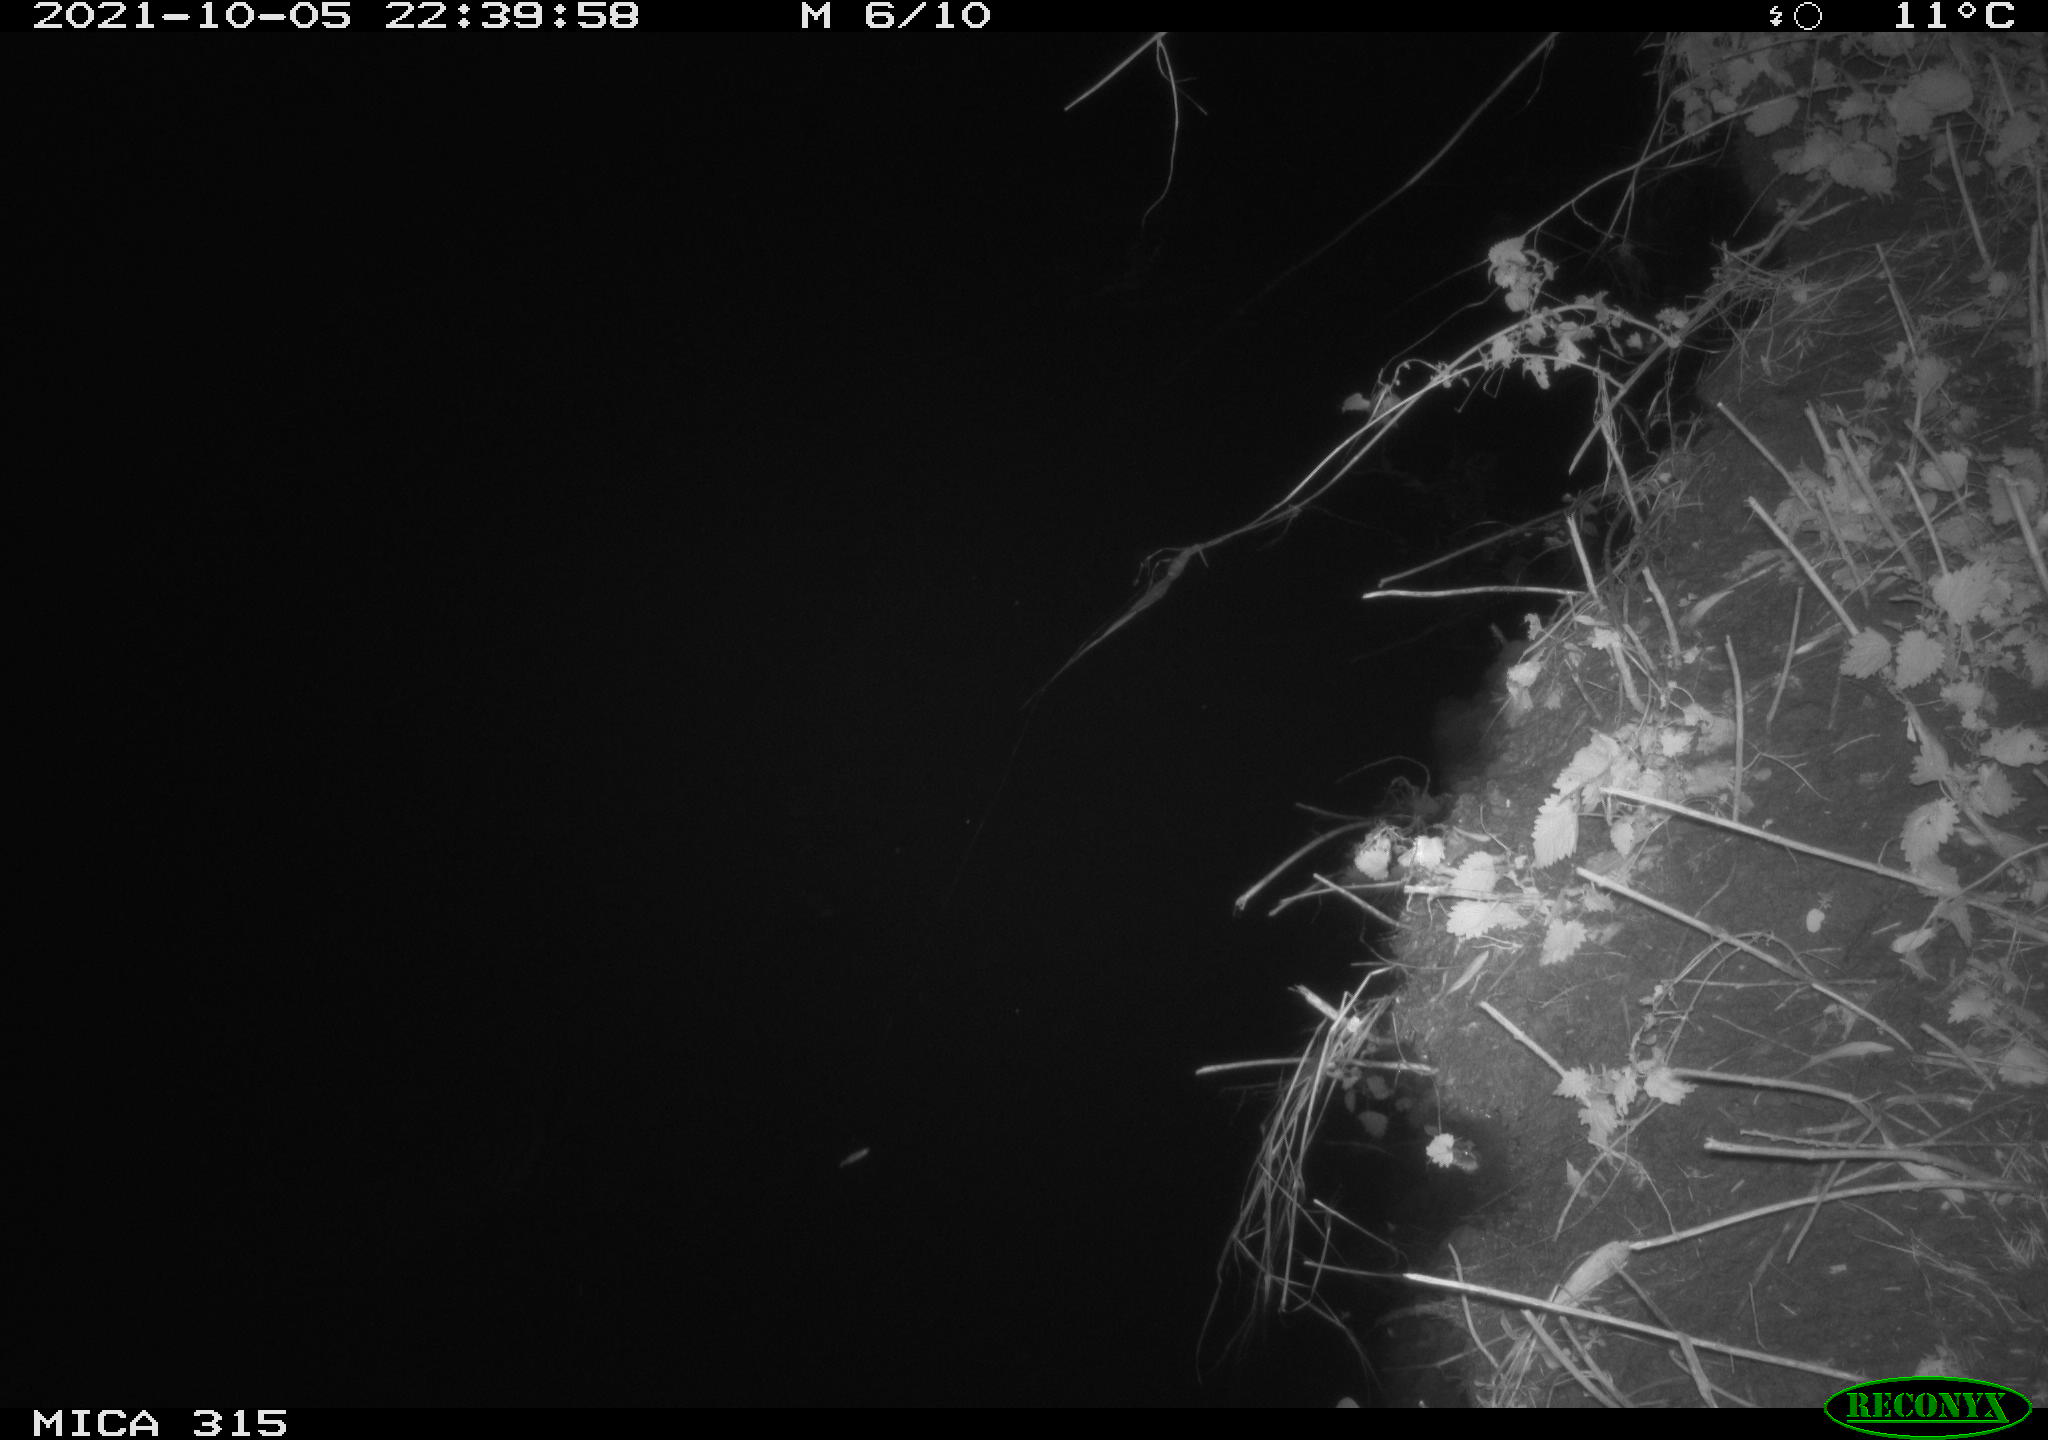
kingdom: Animalia
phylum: Chordata
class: Mammalia
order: Rodentia
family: Muridae
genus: Rattus
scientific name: Rattus norvegicus
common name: Brown rat
